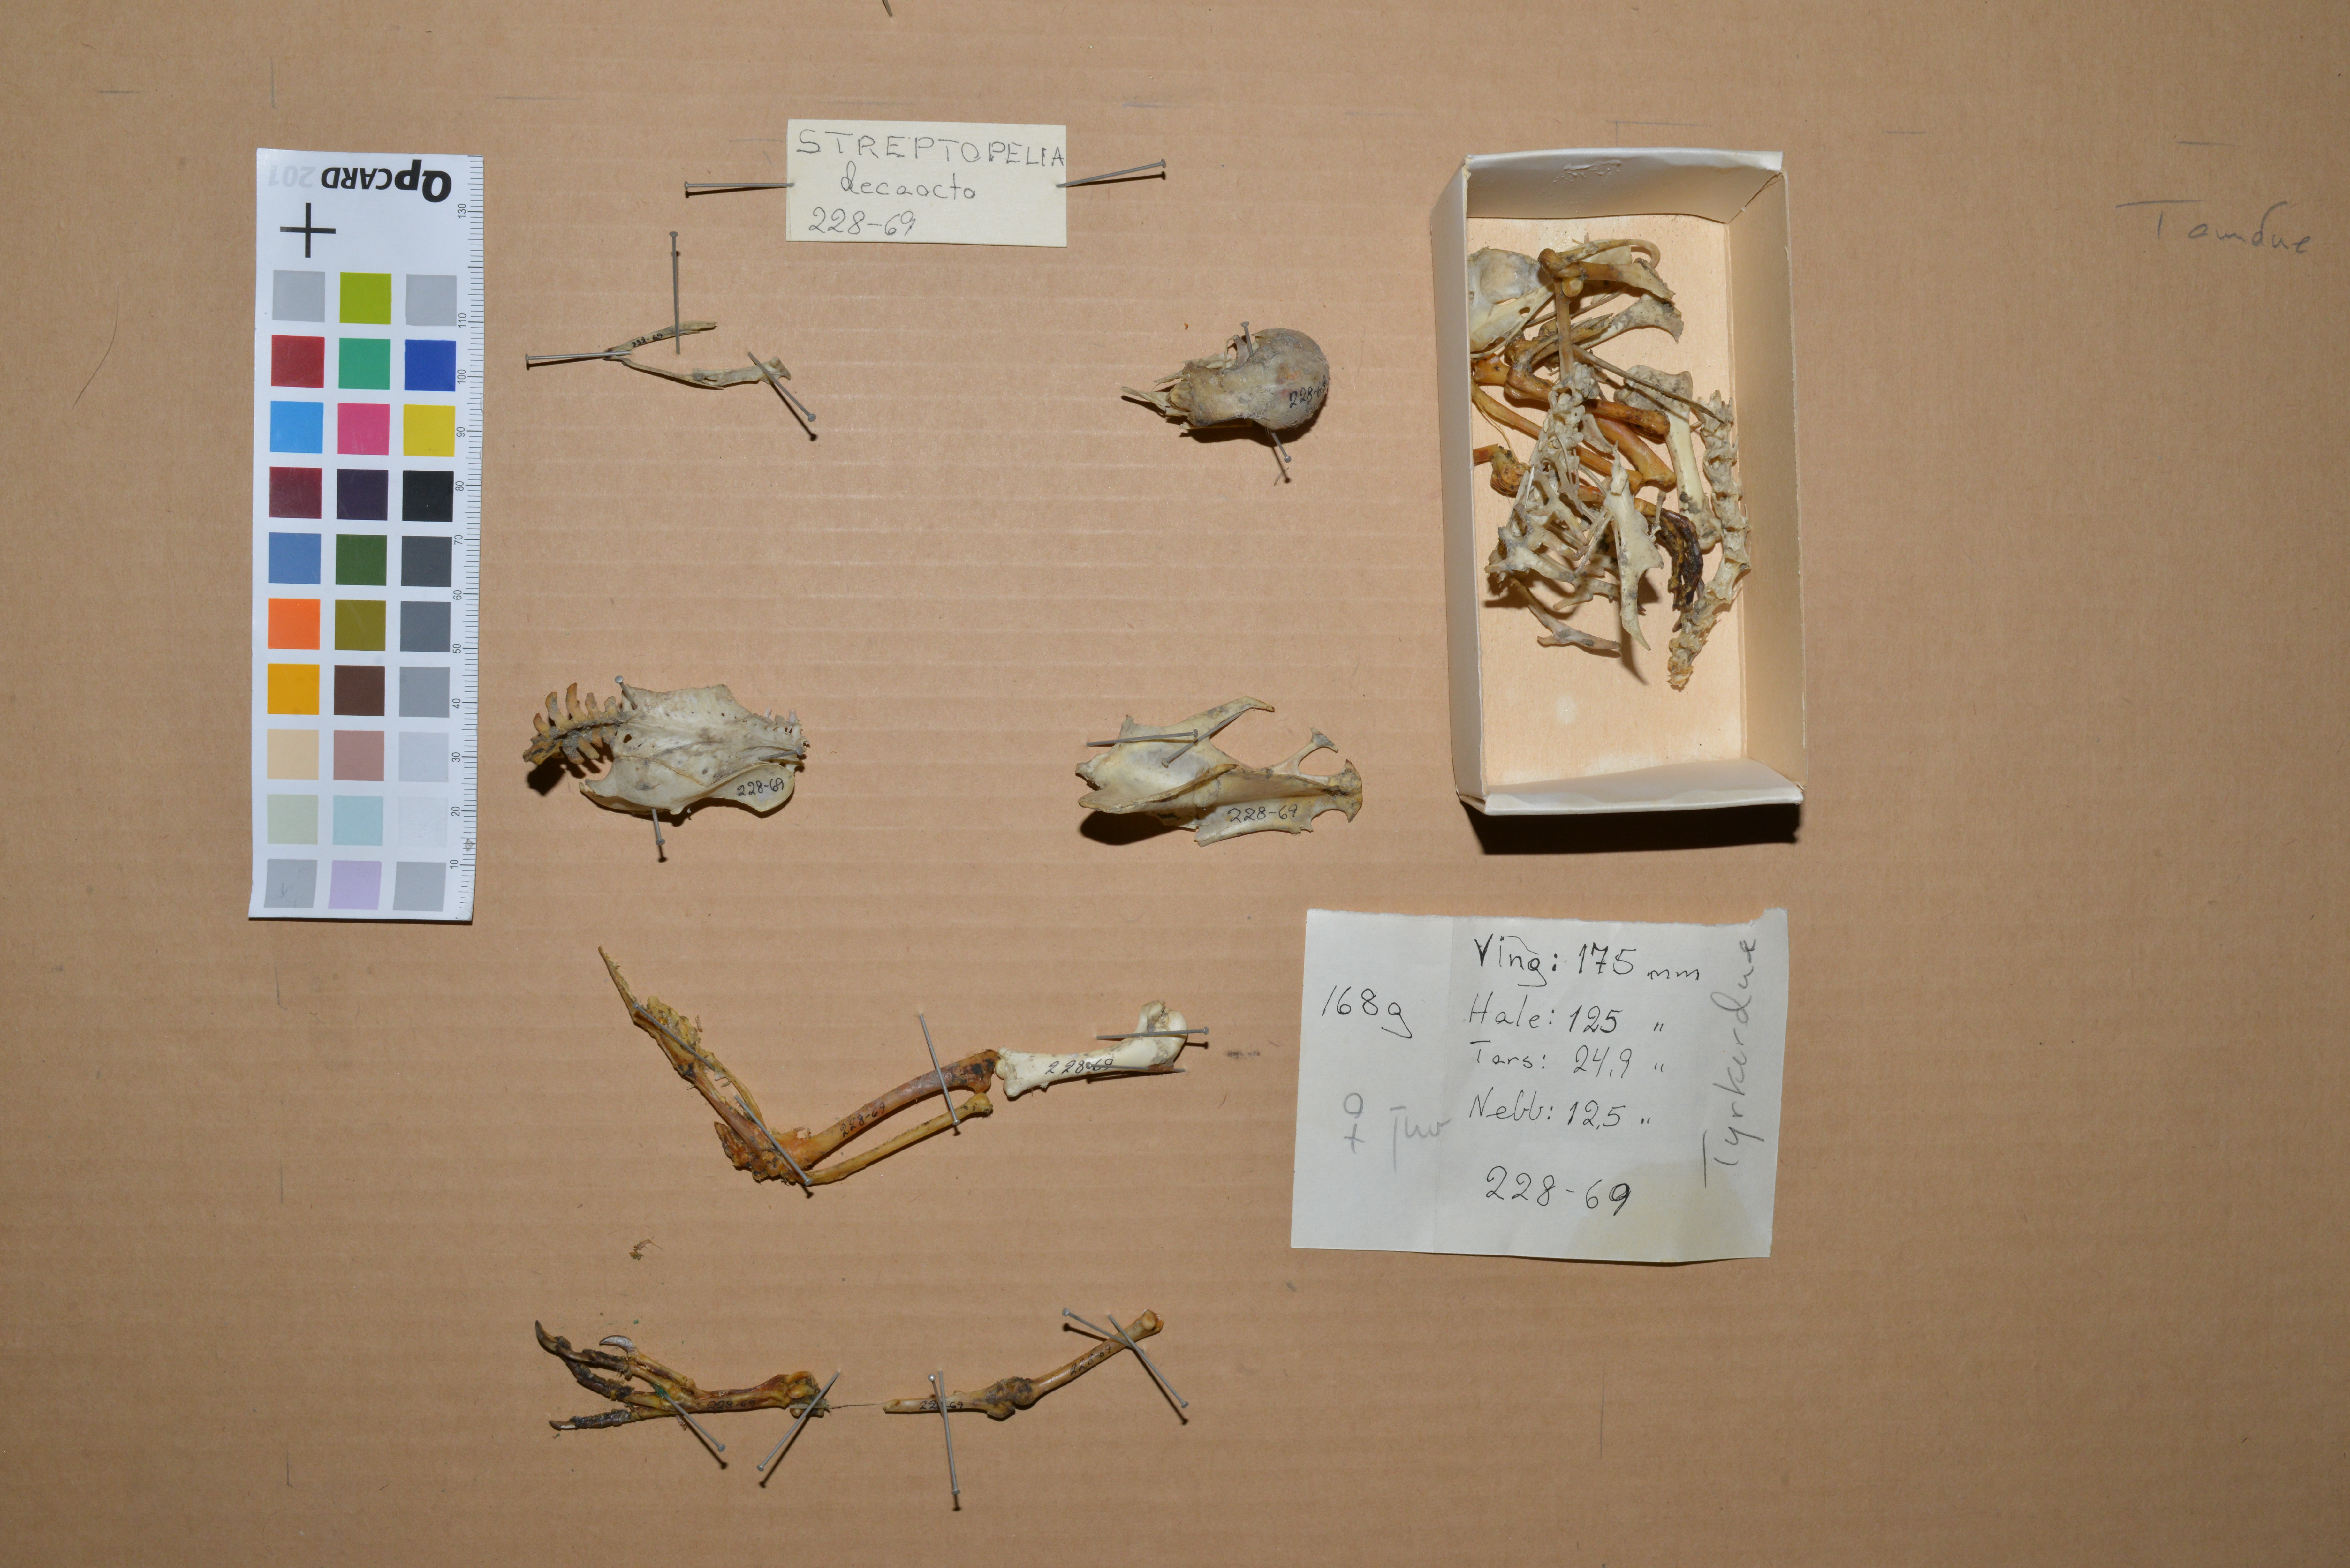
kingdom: Animalia
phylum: Chordata
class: Aves
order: Columbiformes
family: Columbidae
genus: Streptopelia
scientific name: Streptopelia decaocto
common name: Eurasian collared dove
